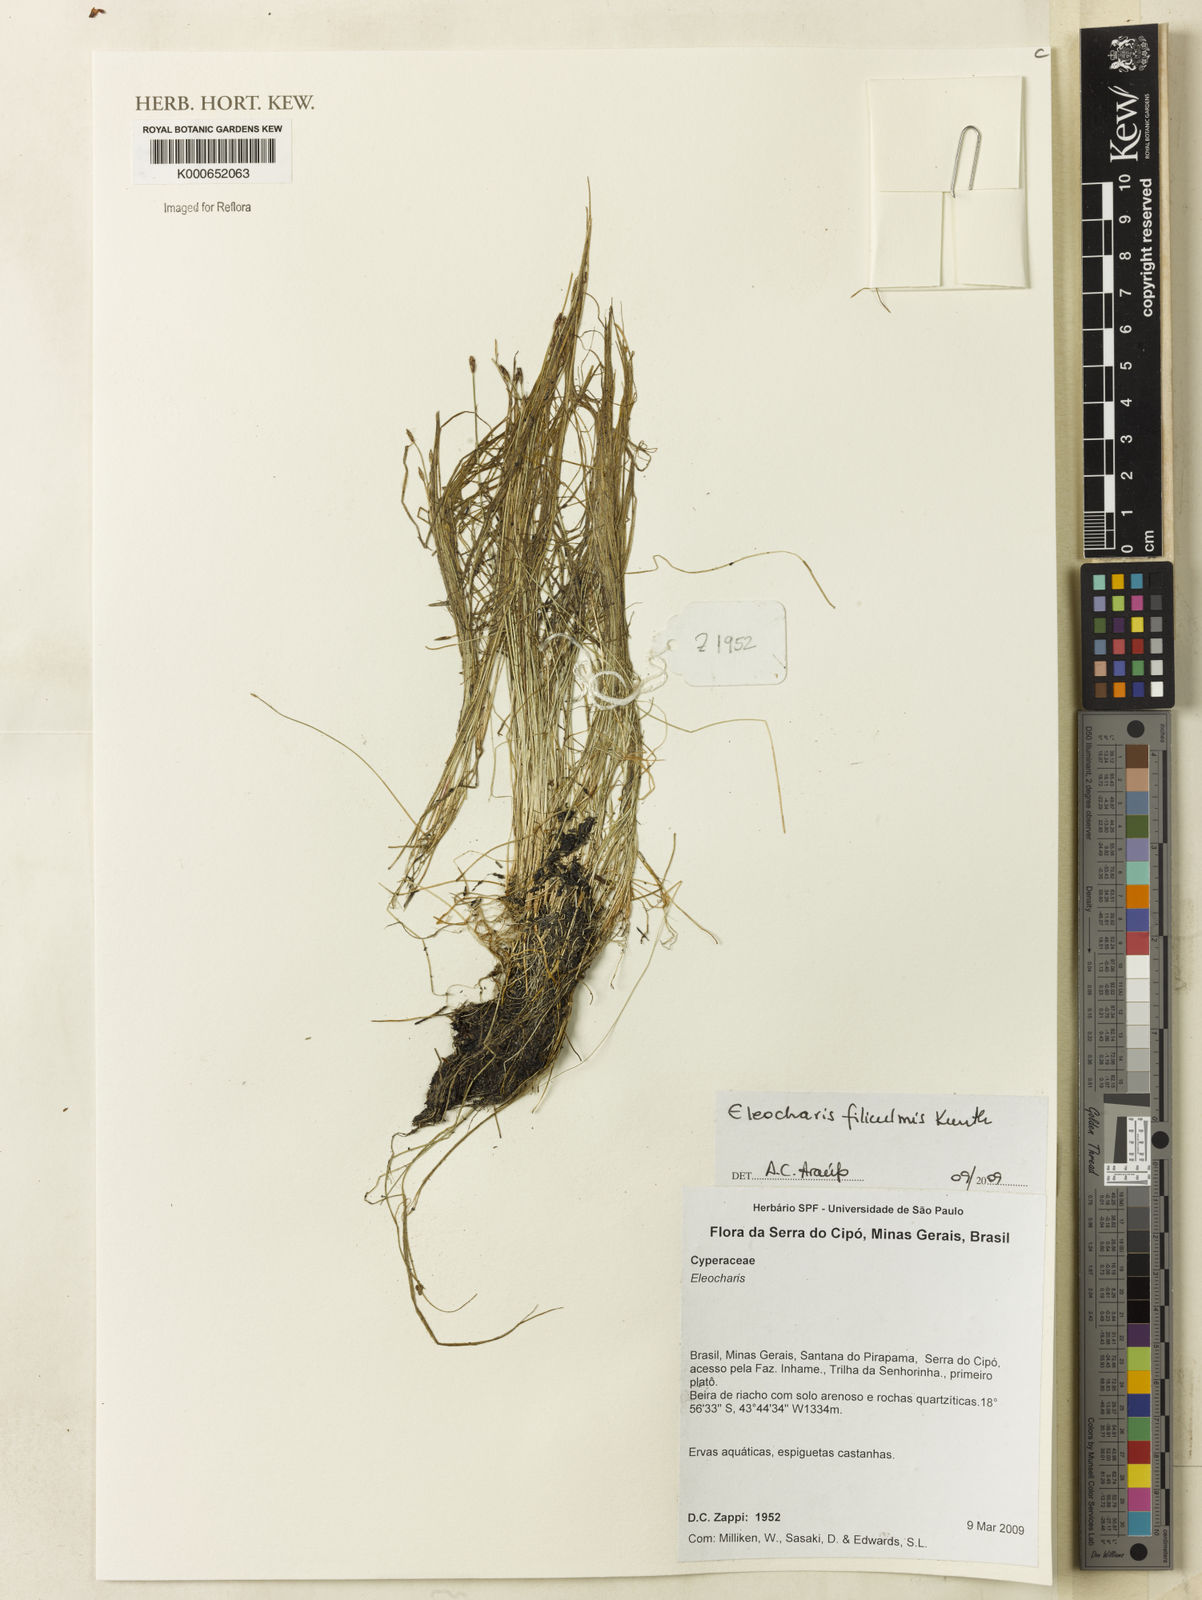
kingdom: Plantae
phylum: Tracheophyta
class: Liliopsida
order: Poales
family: Cyperaceae
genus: Eleocharis
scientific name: Eleocharis filiculmis
